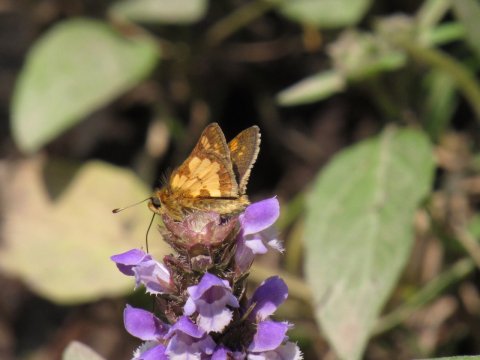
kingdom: Animalia
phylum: Arthropoda
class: Insecta
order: Lepidoptera
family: Hesperiidae
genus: Polites
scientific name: Polites coras
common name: Peck's Skipper
